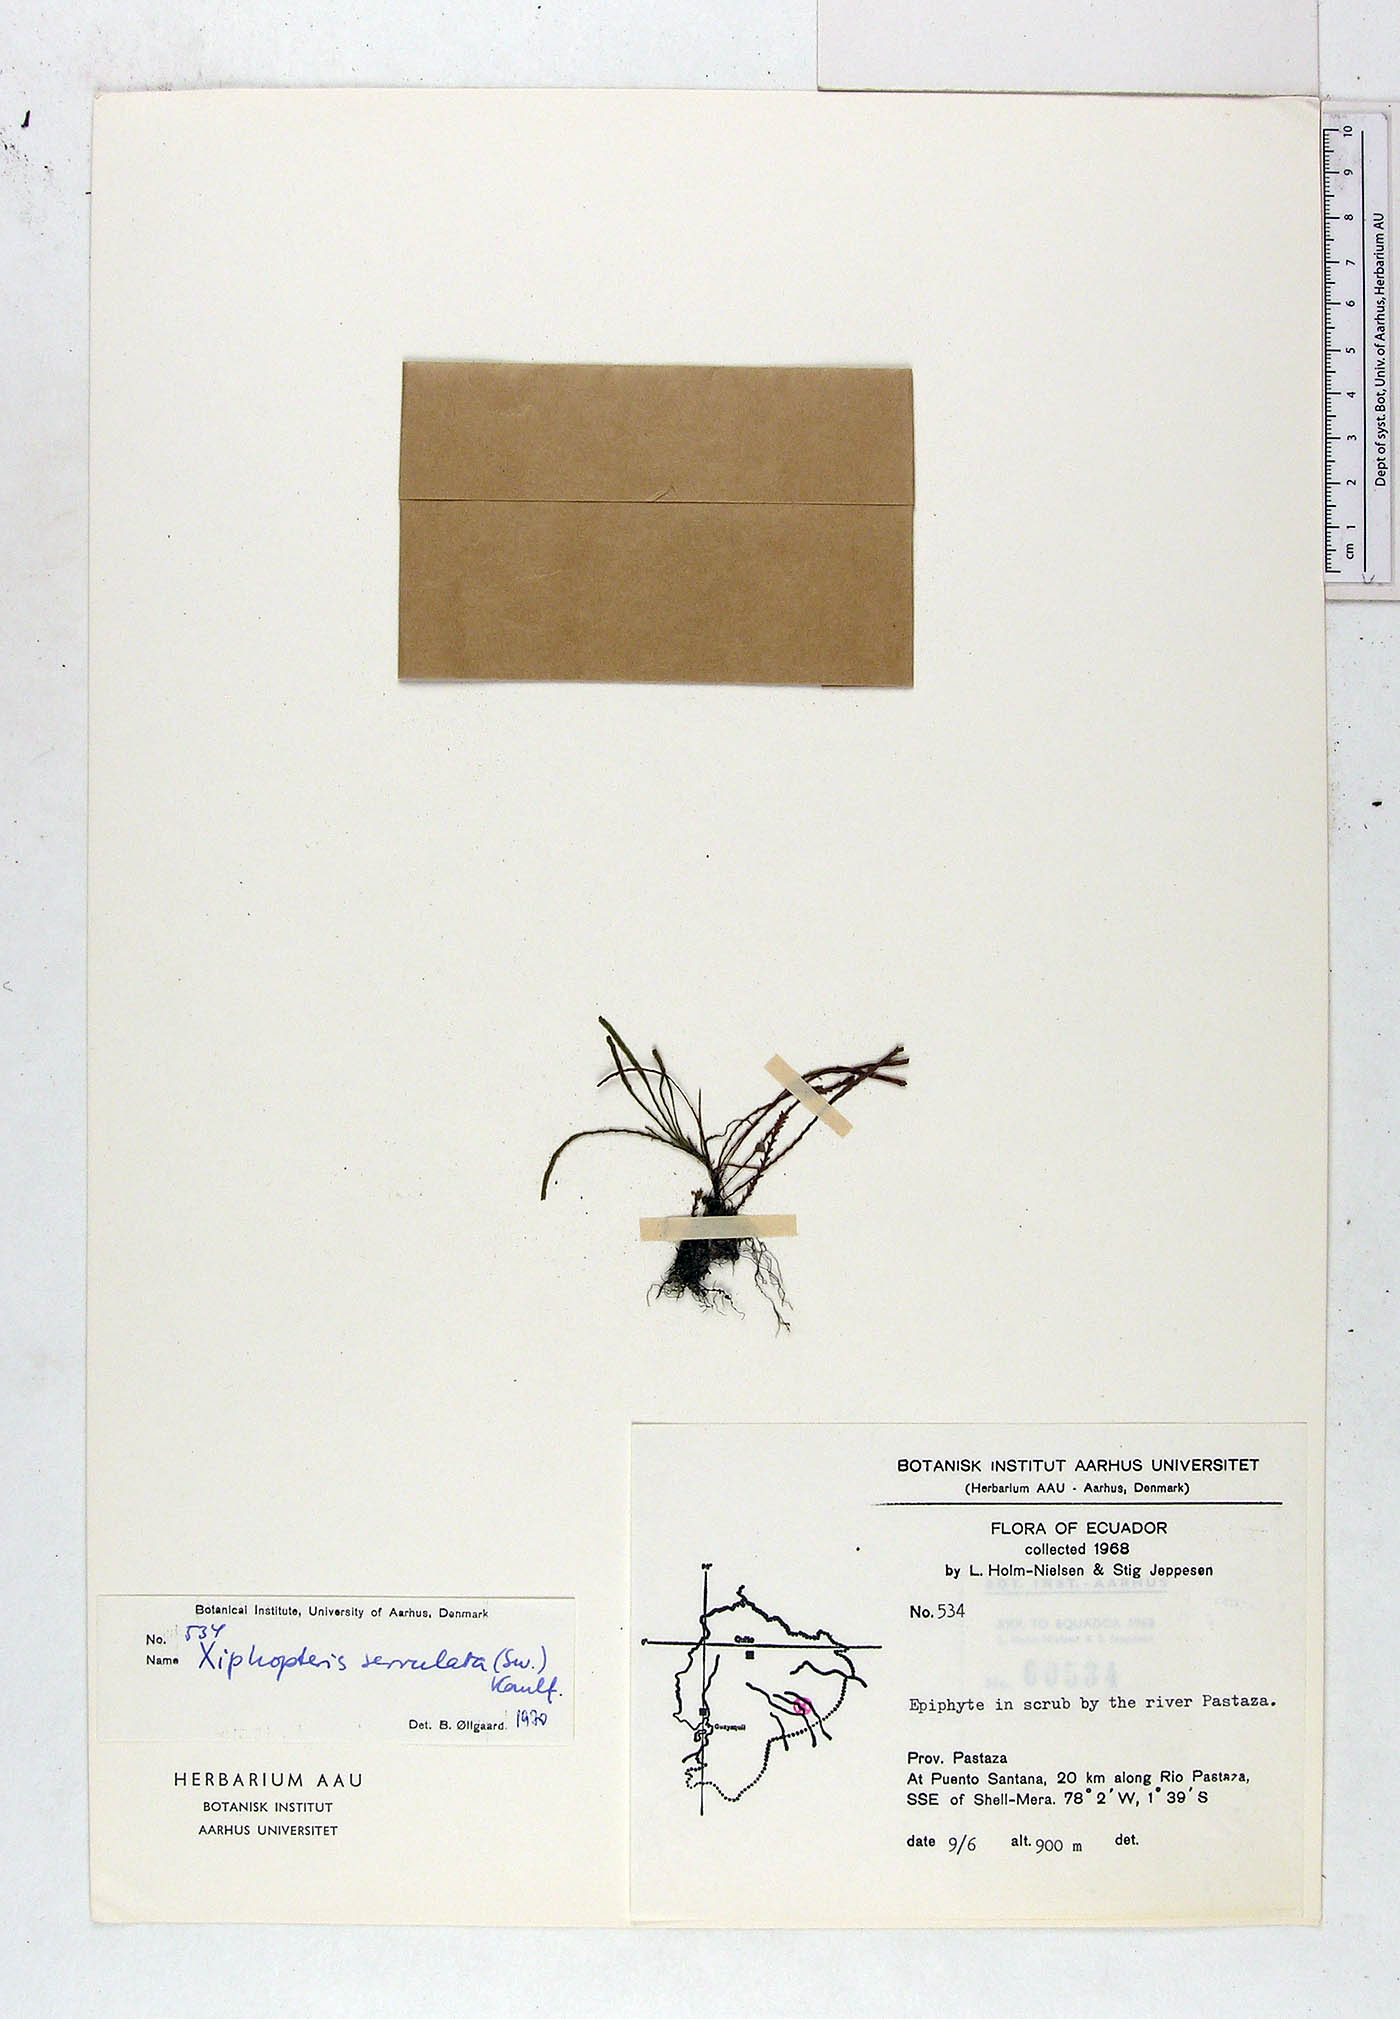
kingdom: Plantae
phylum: Tracheophyta
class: Polypodiopsida
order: Polypodiales
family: Polypodiaceae
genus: Cochlidium
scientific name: Cochlidium serrulatum
